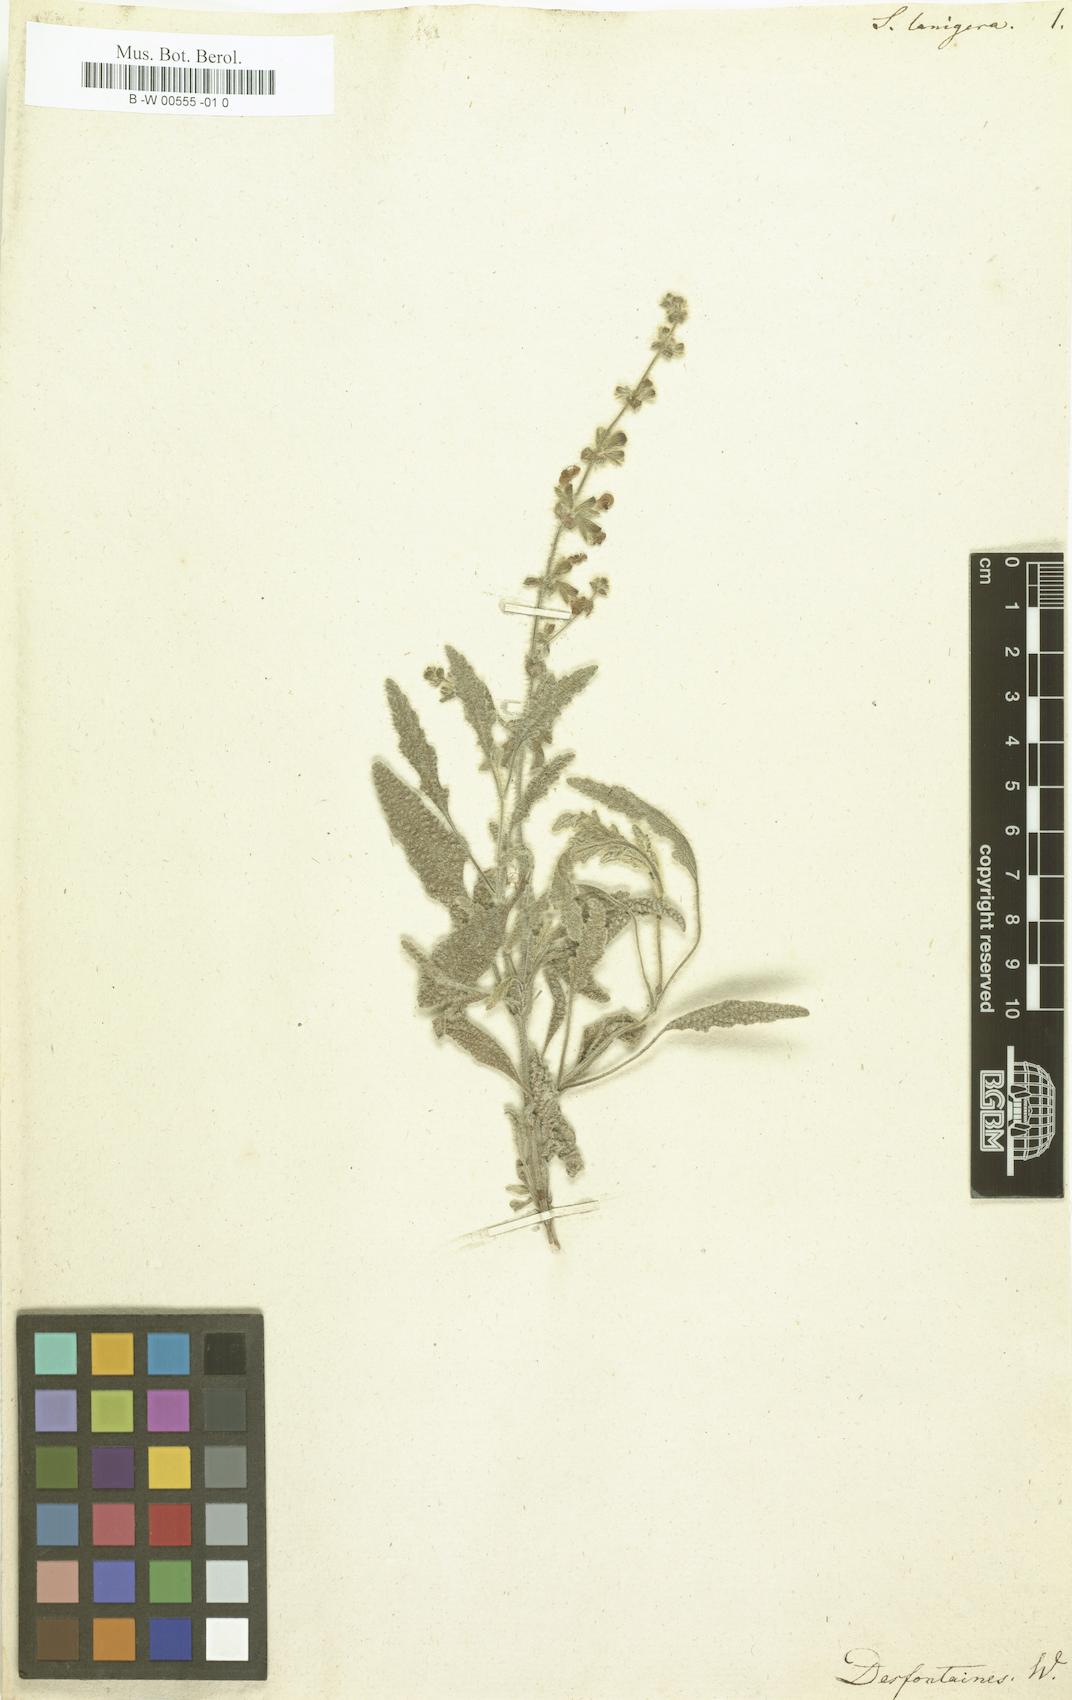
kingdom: Plantae
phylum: Tracheophyta
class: Magnoliopsida
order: Lamiales
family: Lamiaceae
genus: Salvia
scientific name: Salvia lanigera
